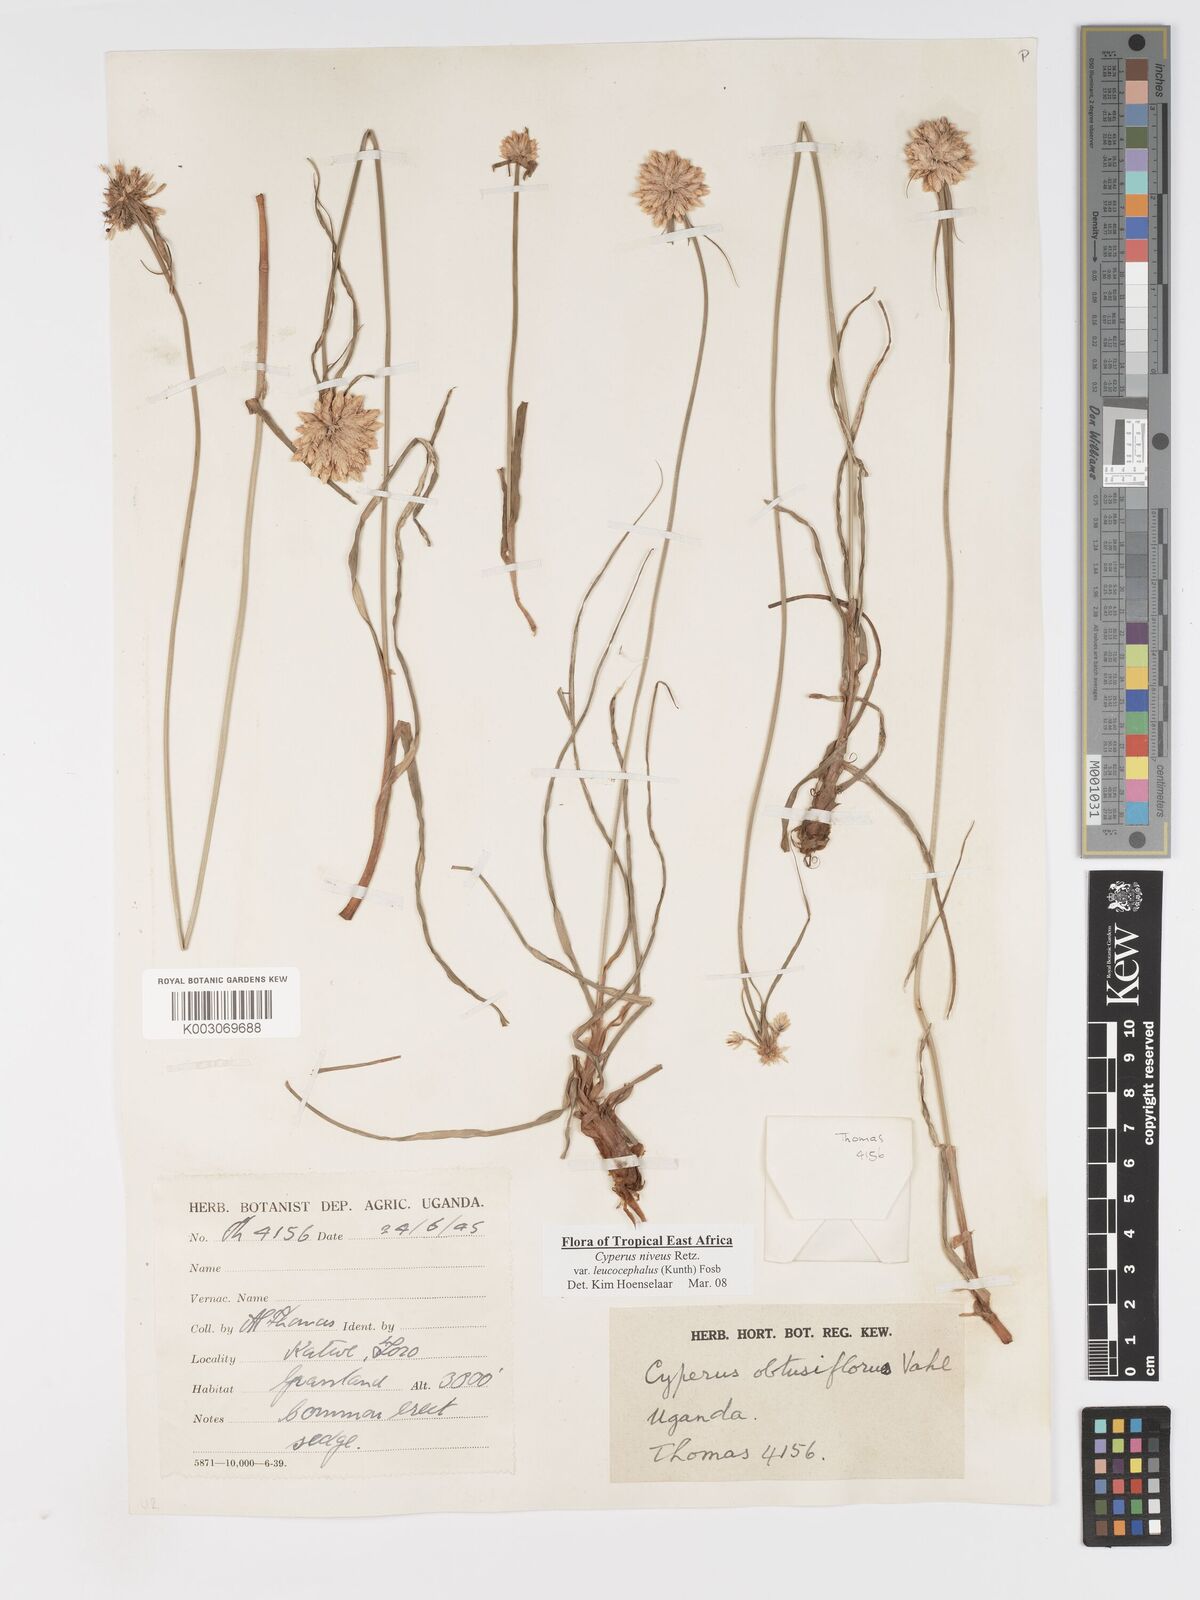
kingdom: Plantae
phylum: Tracheophyta
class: Liliopsida
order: Poales
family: Cyperaceae
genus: Cyperus
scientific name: Cyperus niveus
